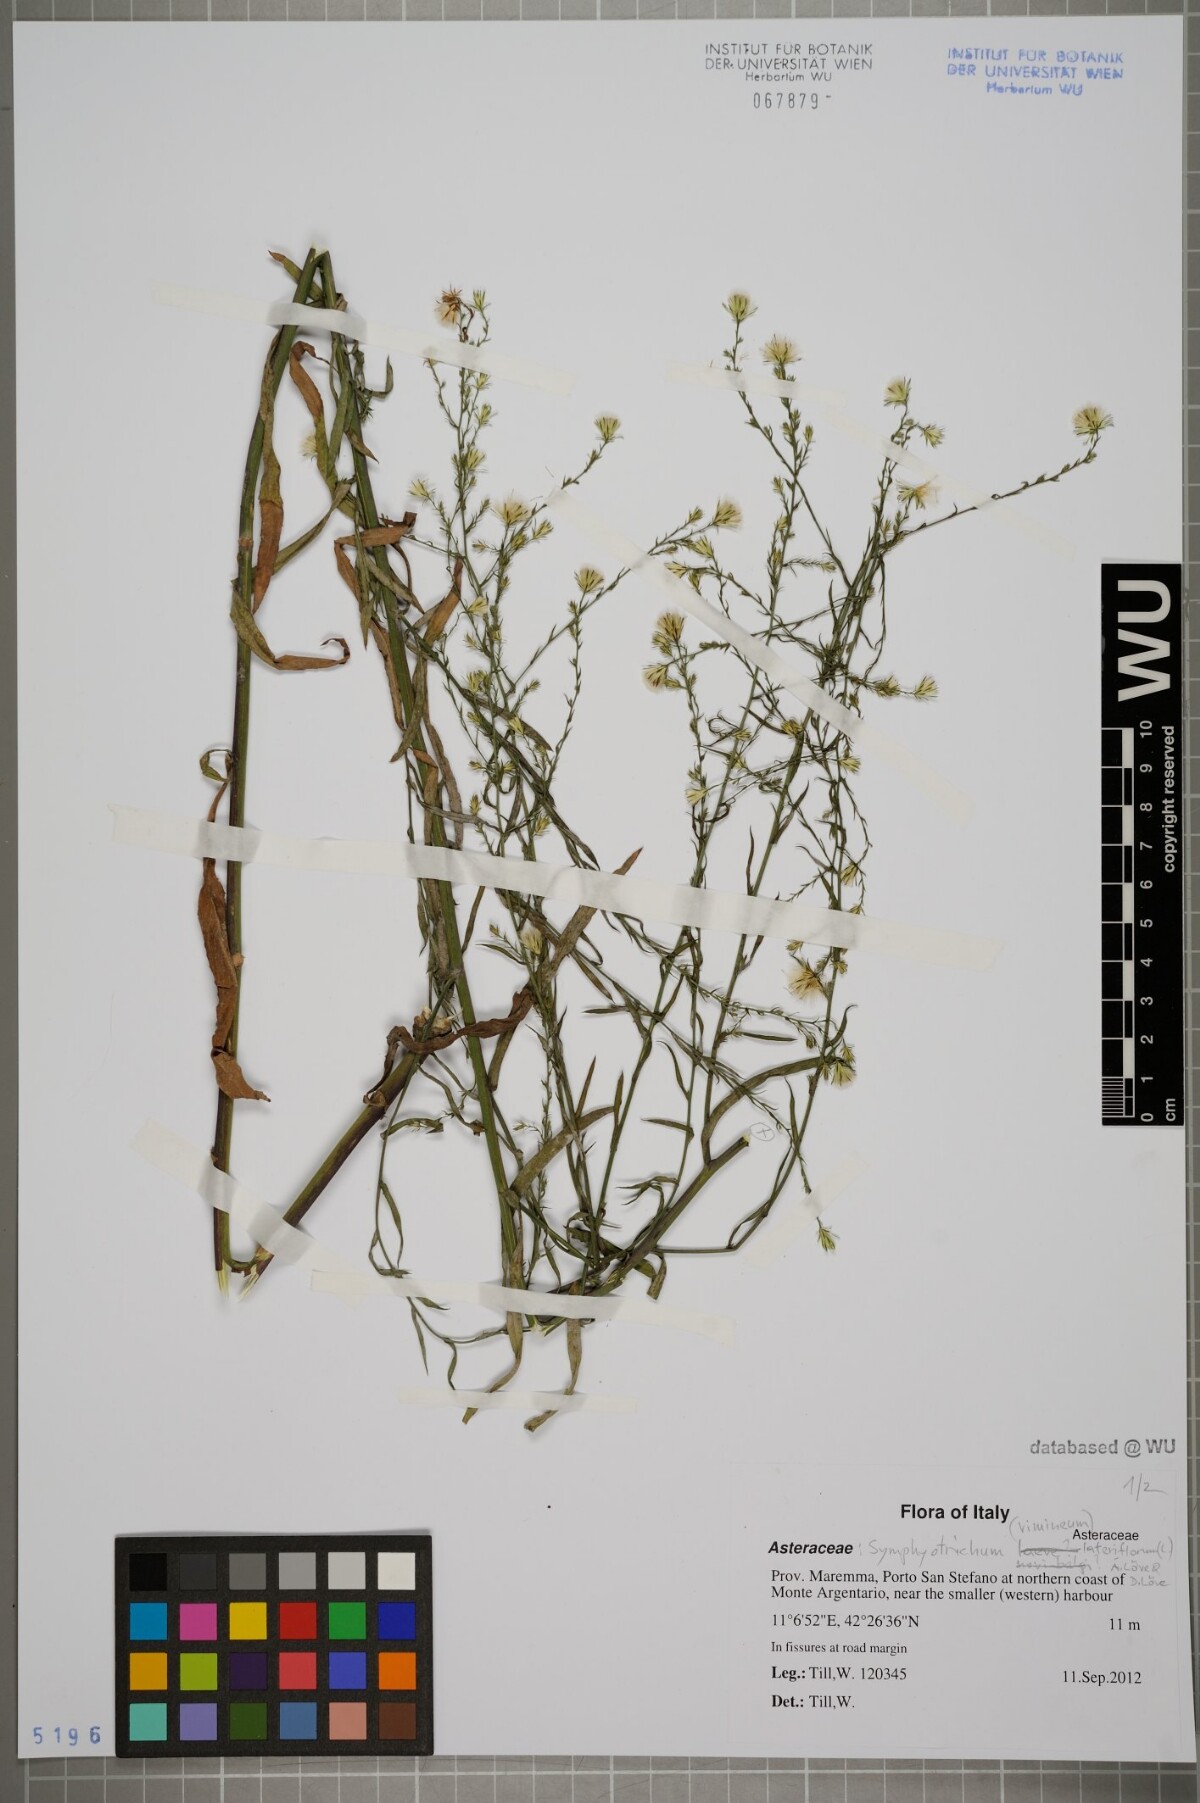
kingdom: Plantae
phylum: Tracheophyta
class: Magnoliopsida
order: Asterales
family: Asteraceae
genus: Symphyotrichum
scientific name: Symphyotrichum lateriflorum
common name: Calico aster
